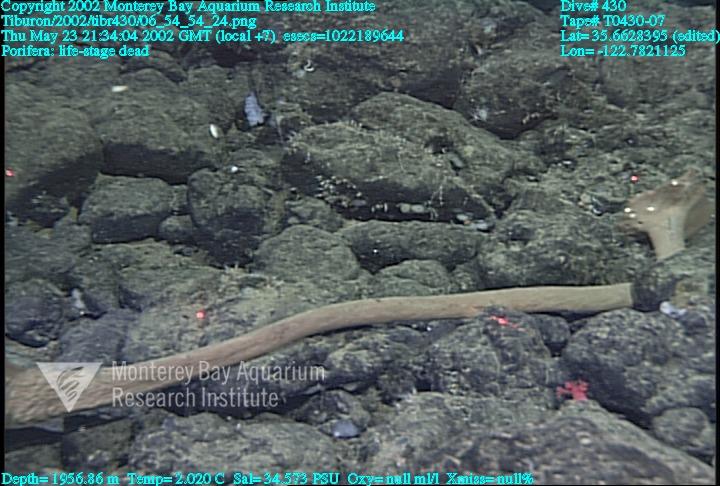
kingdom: Animalia
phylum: Porifera
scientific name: Porifera
